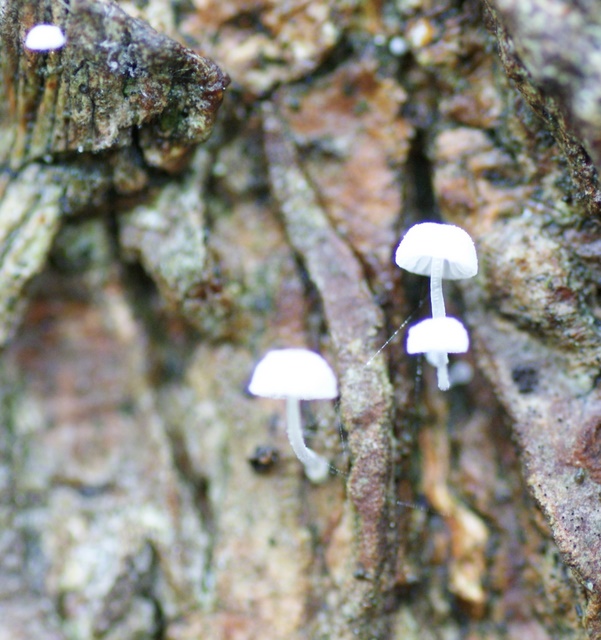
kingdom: Fungi
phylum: Basidiomycota
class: Agaricomycetes
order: Agaricales
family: Mycenaceae
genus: Mycena
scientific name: Mycena clavularis
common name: dunskivet huesvamp
